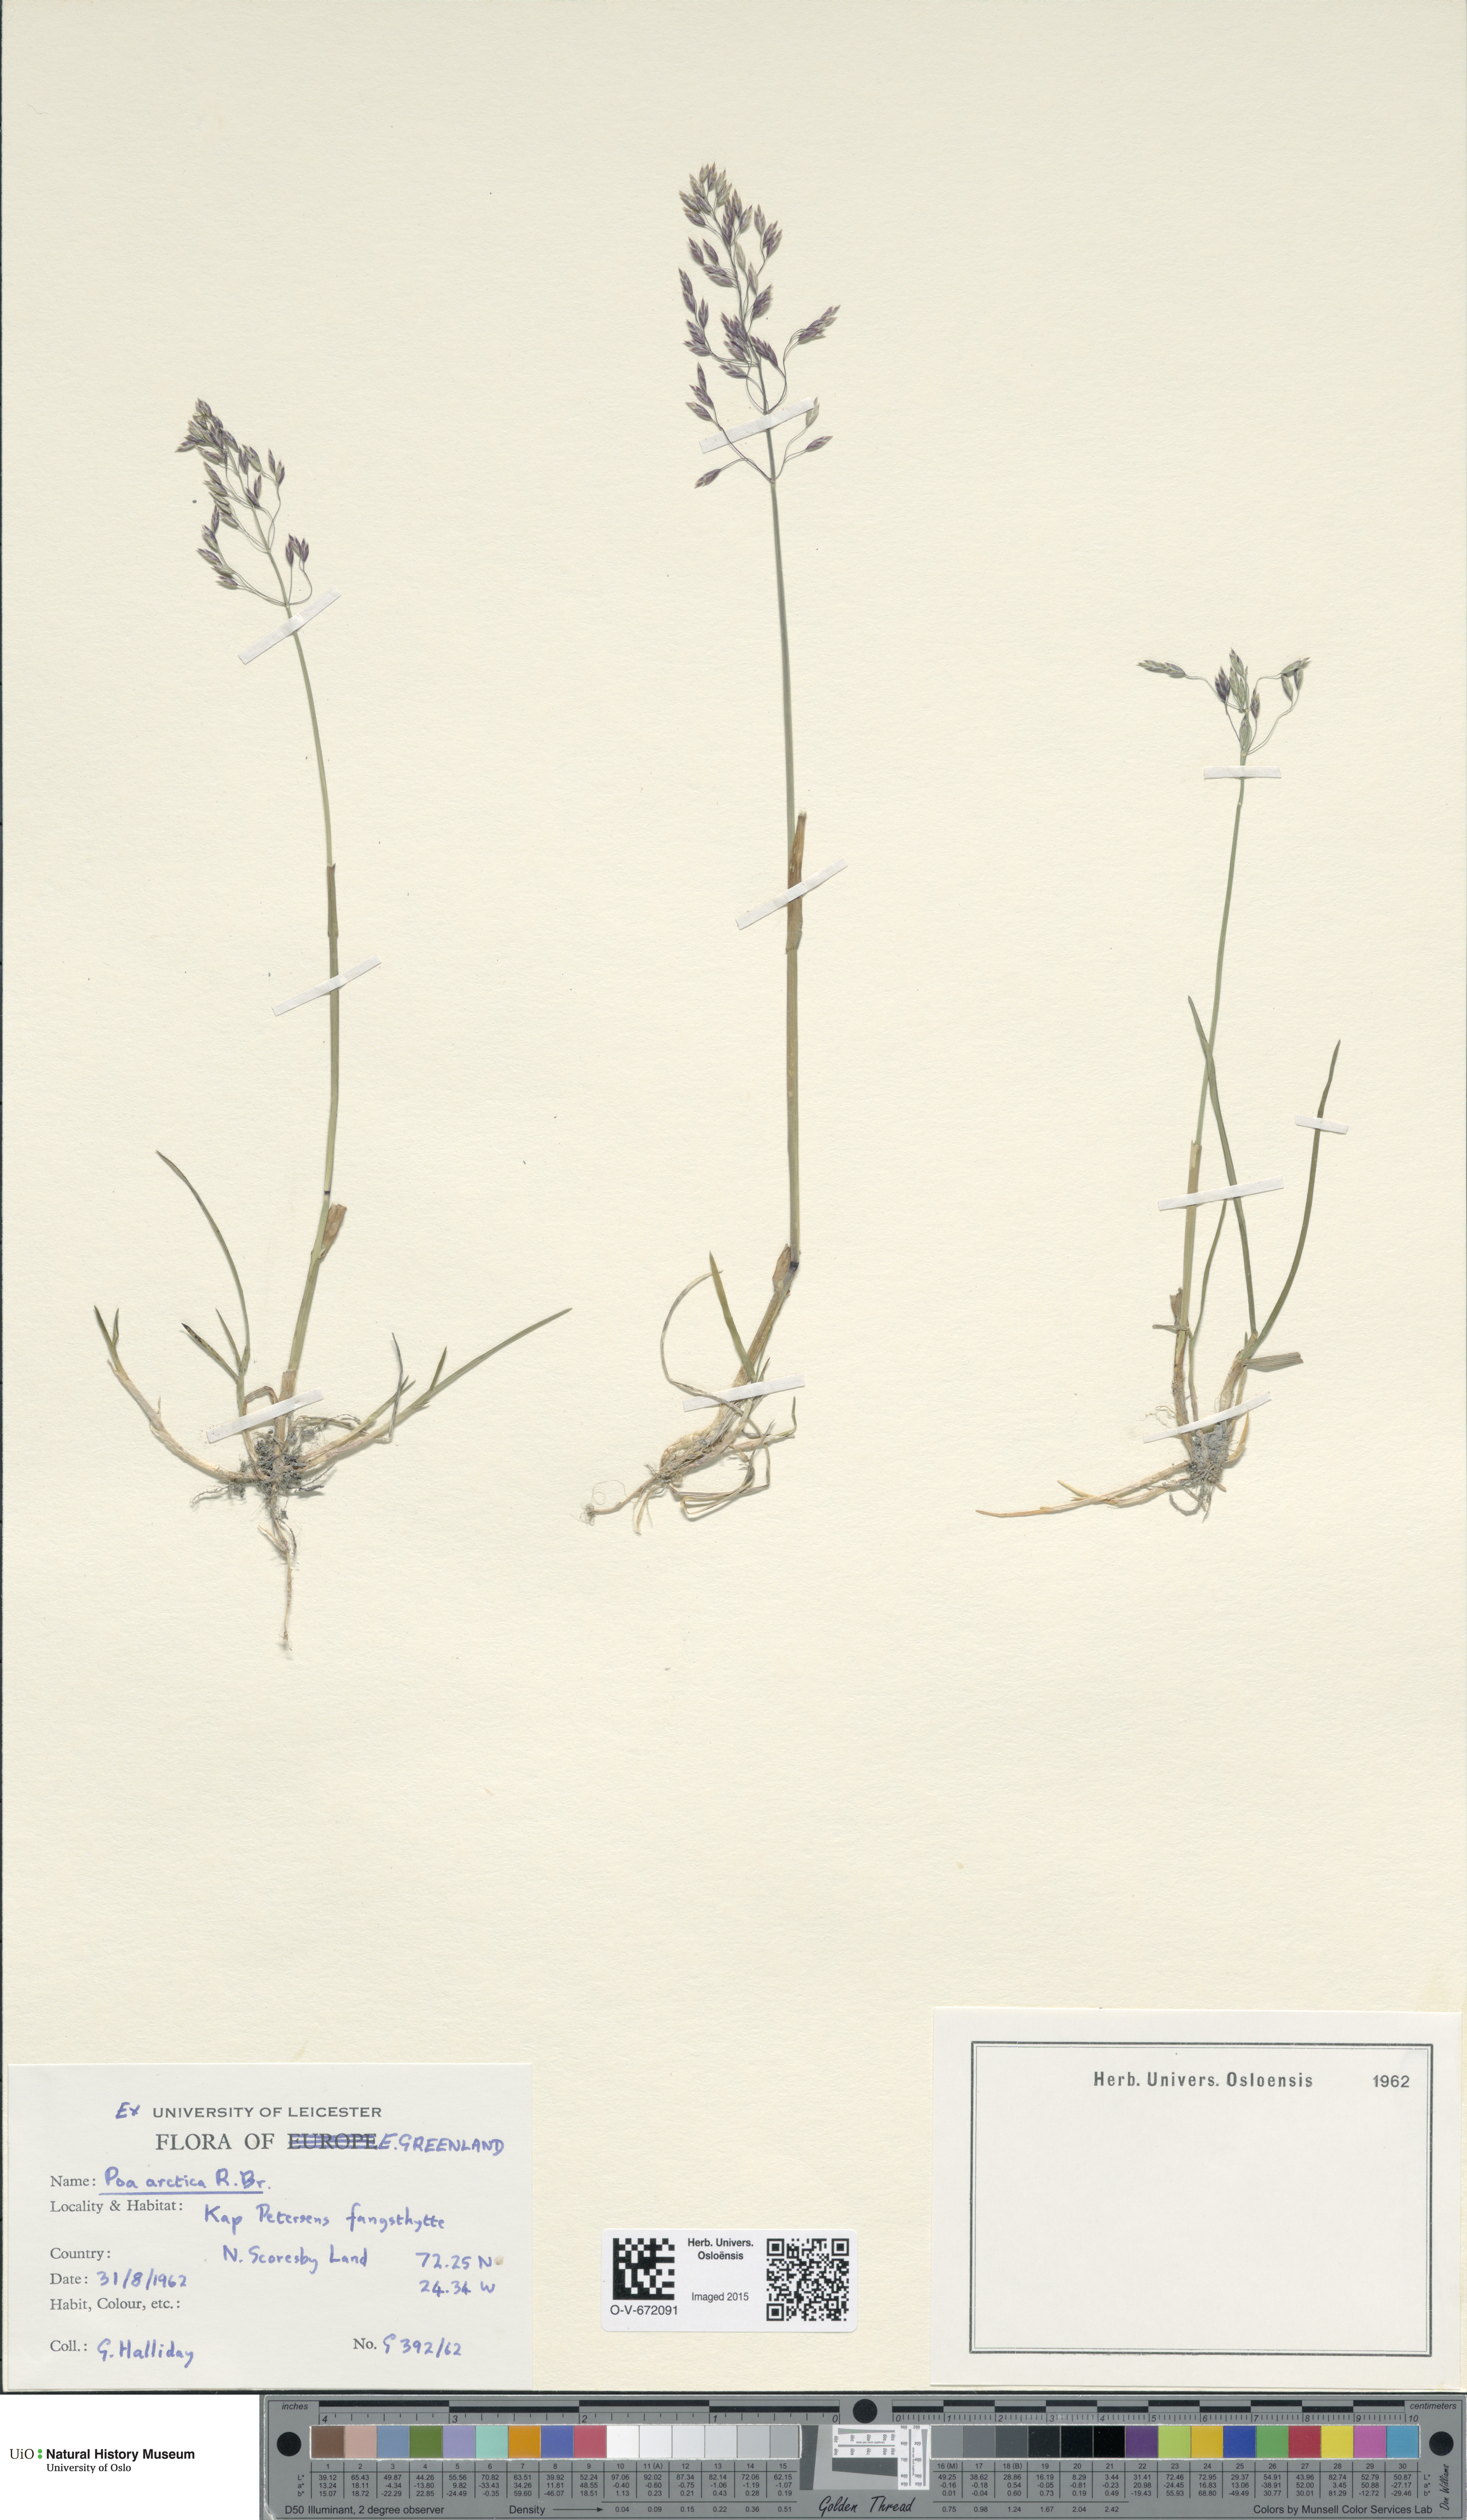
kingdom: Plantae
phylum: Tracheophyta
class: Liliopsida
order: Poales
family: Poaceae
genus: Poa
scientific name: Poa arctica
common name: Arctic bluegrass
